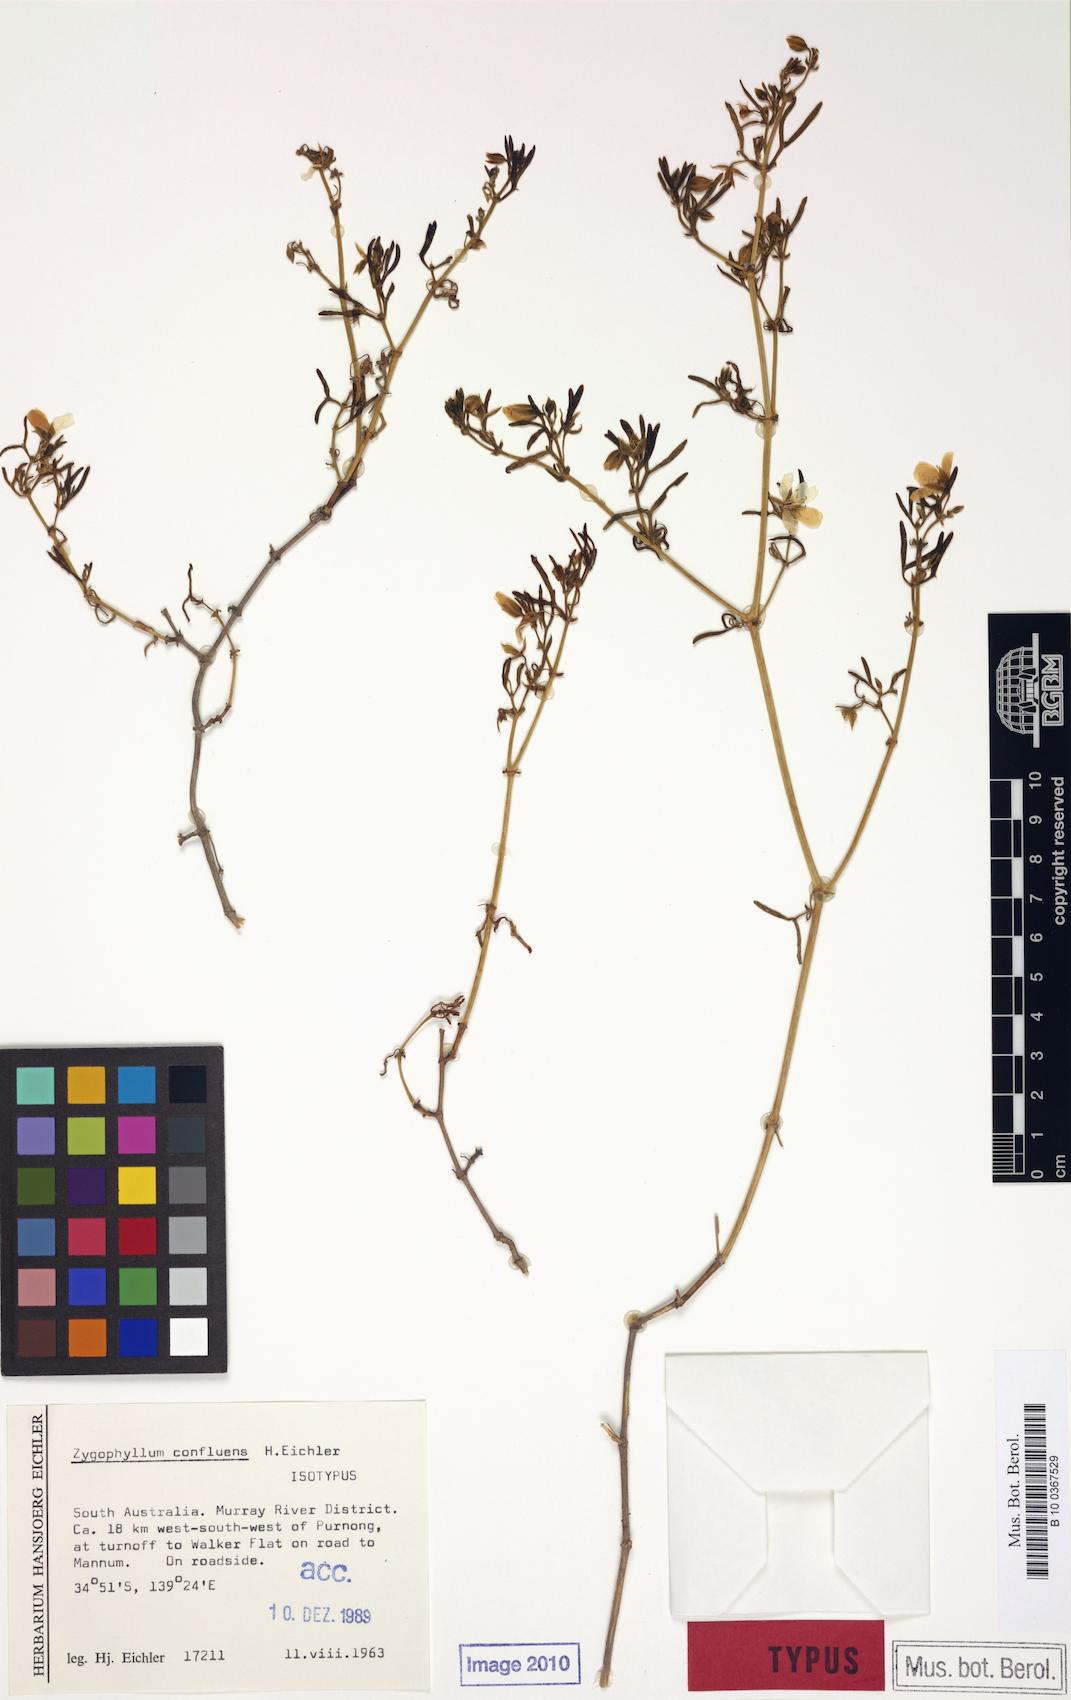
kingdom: Plantae
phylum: Tracheophyta
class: Magnoliopsida
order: Zygophyllales
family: Zygophyllaceae
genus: Roepera
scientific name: Roepera confluens
